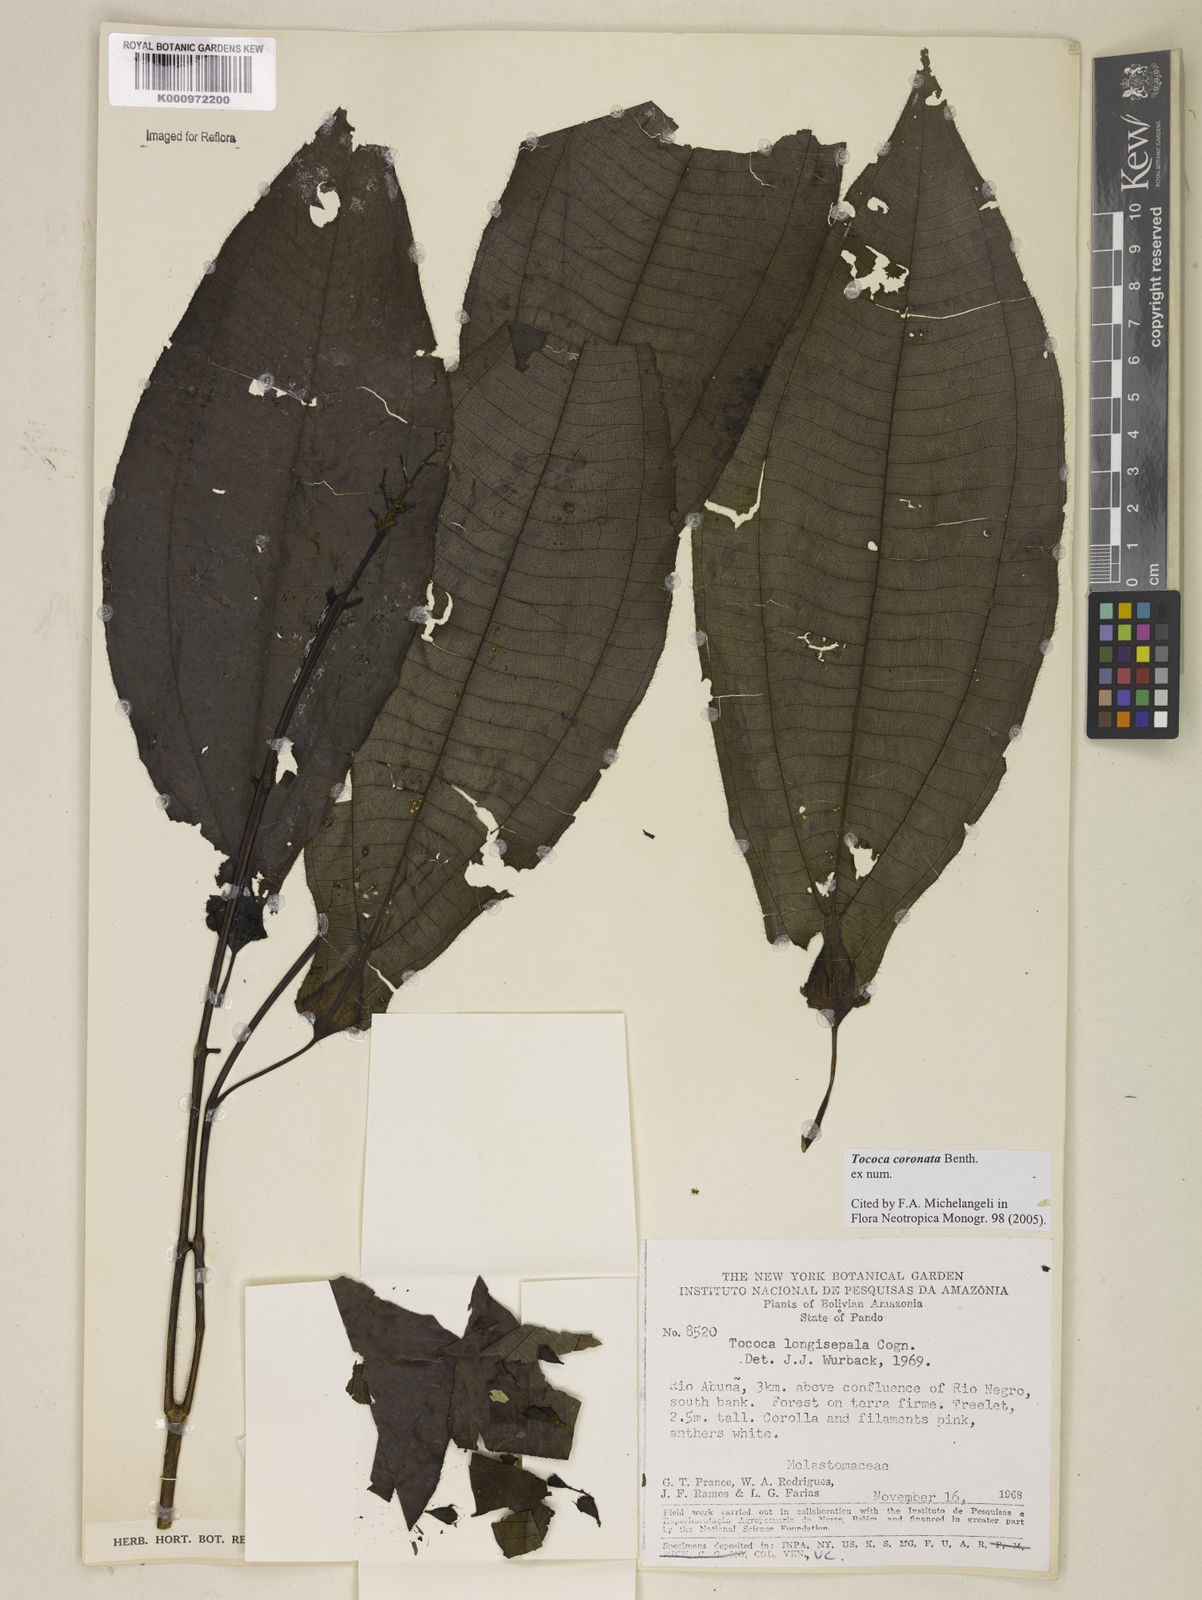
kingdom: Plantae
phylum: Tracheophyta
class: Magnoliopsida
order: Myrtales
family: Melastomataceae
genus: Miconia
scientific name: Miconia tococoronata
